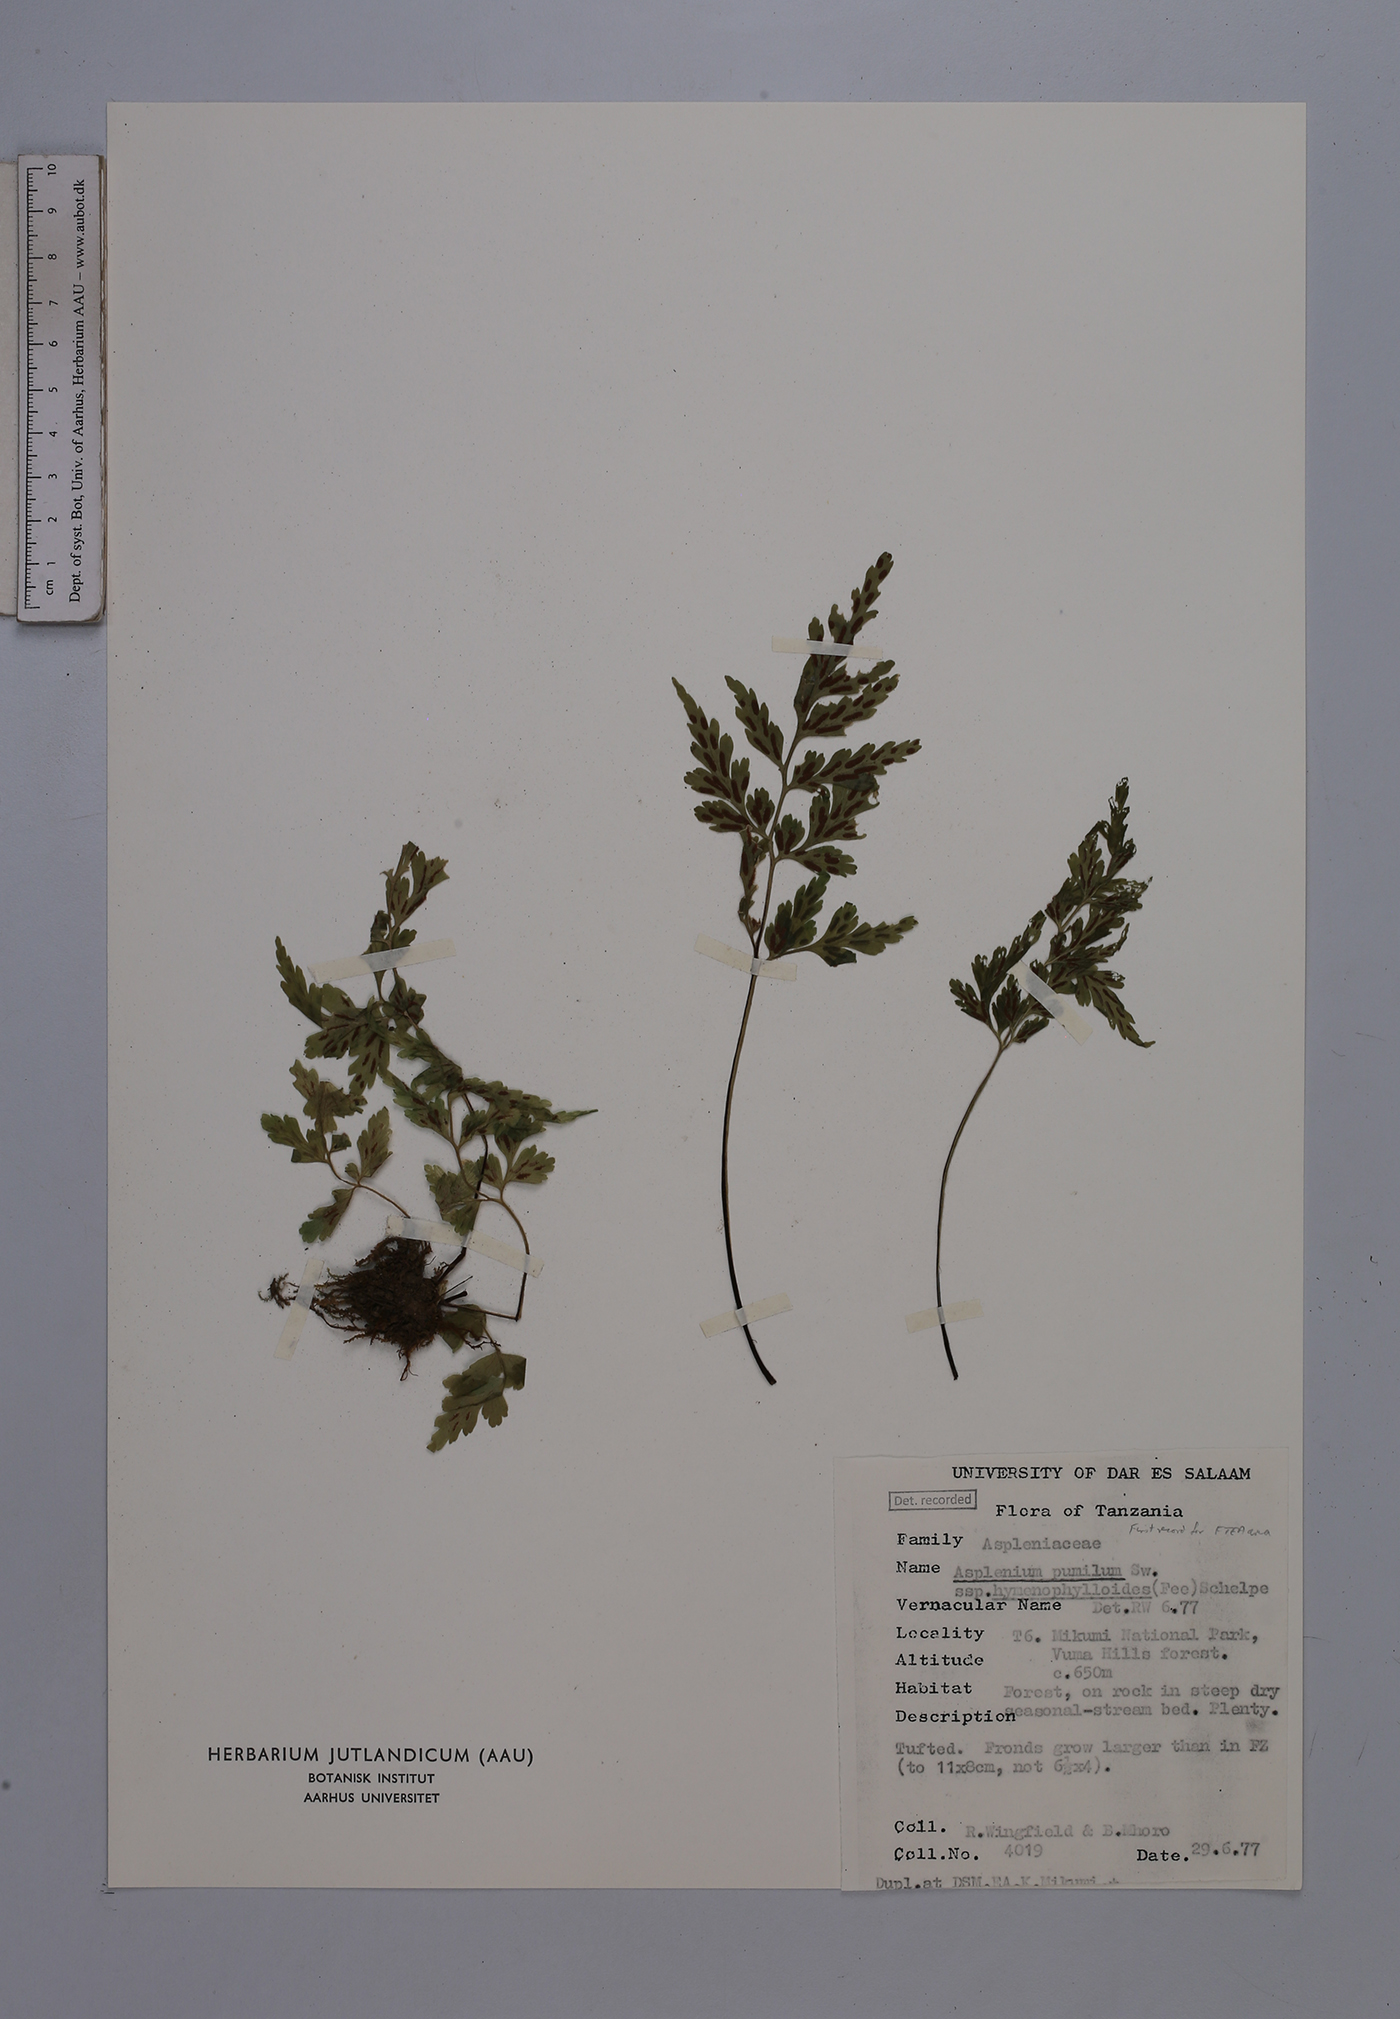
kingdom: Plantae
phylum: Tracheophyta
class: Polypodiopsida
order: Polypodiales
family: Aspleniaceae
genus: Asplenium
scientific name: Asplenium eylesii
